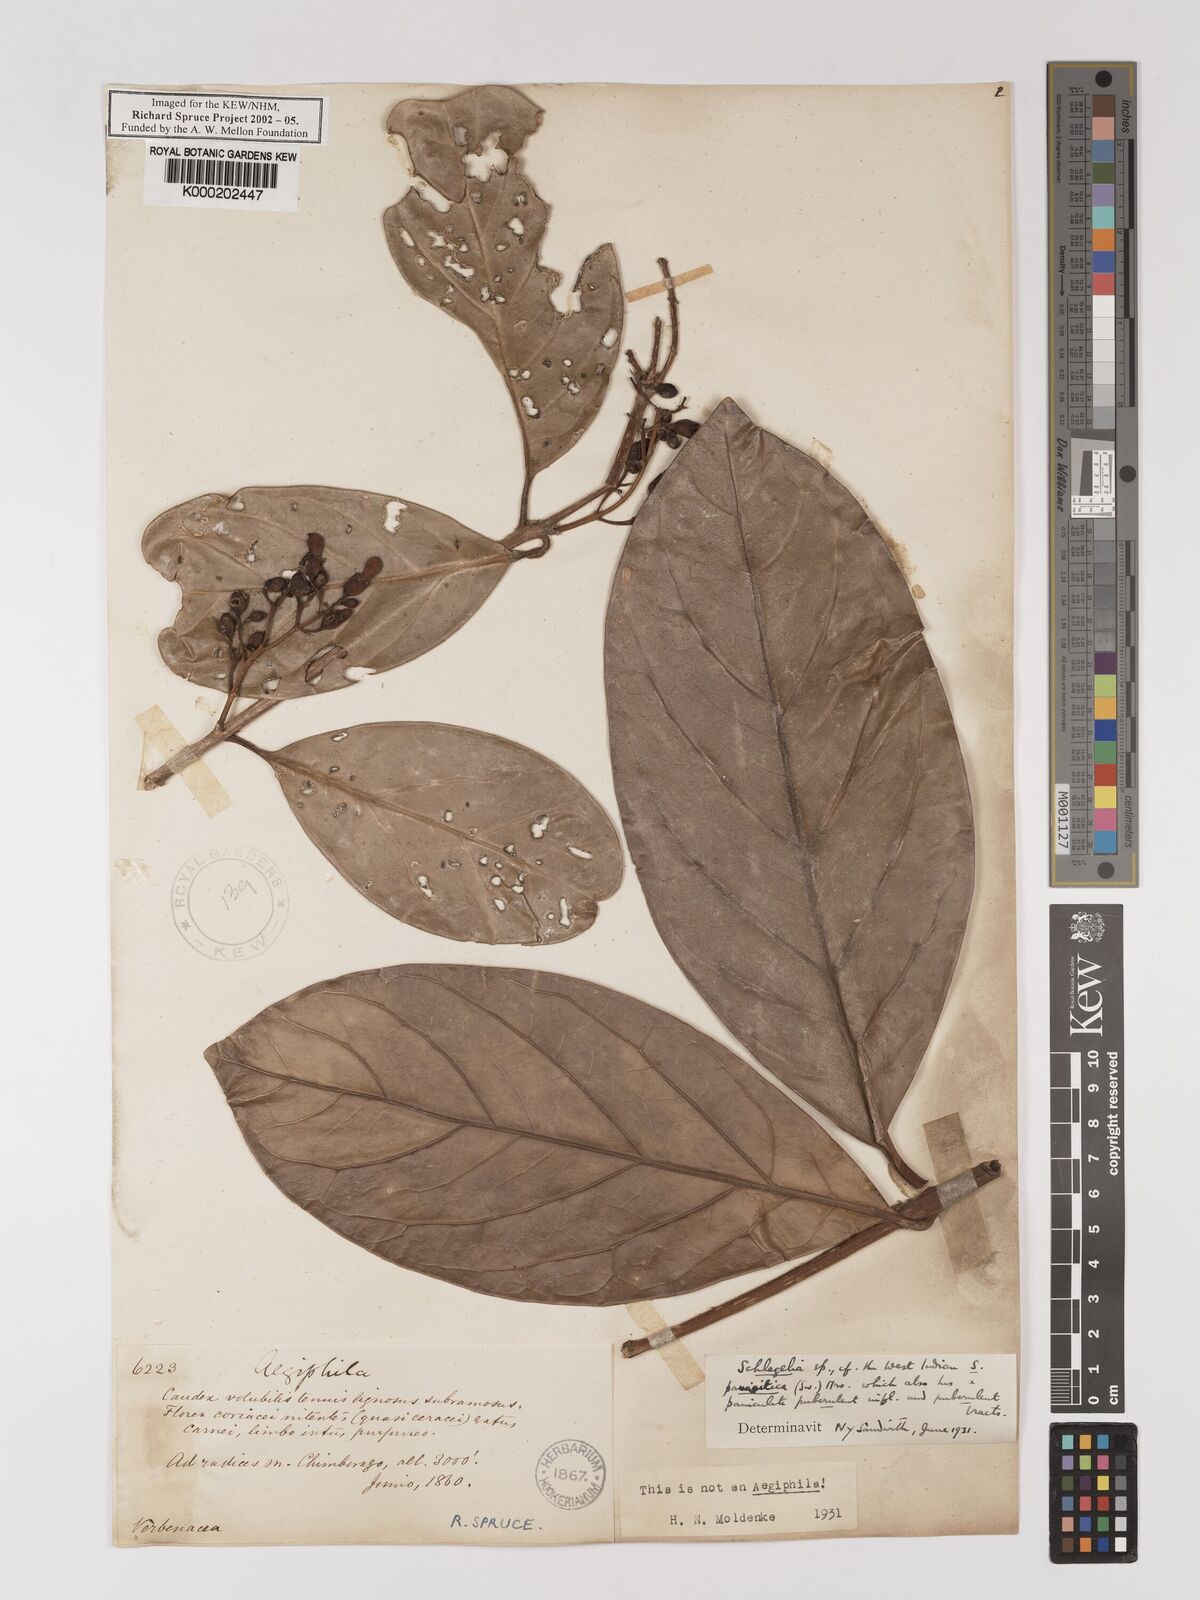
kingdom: Plantae
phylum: Tracheophyta
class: Magnoliopsida
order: Lamiales
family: Schlegeliaceae
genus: Schlegelia
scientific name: Schlegelia parasitica
